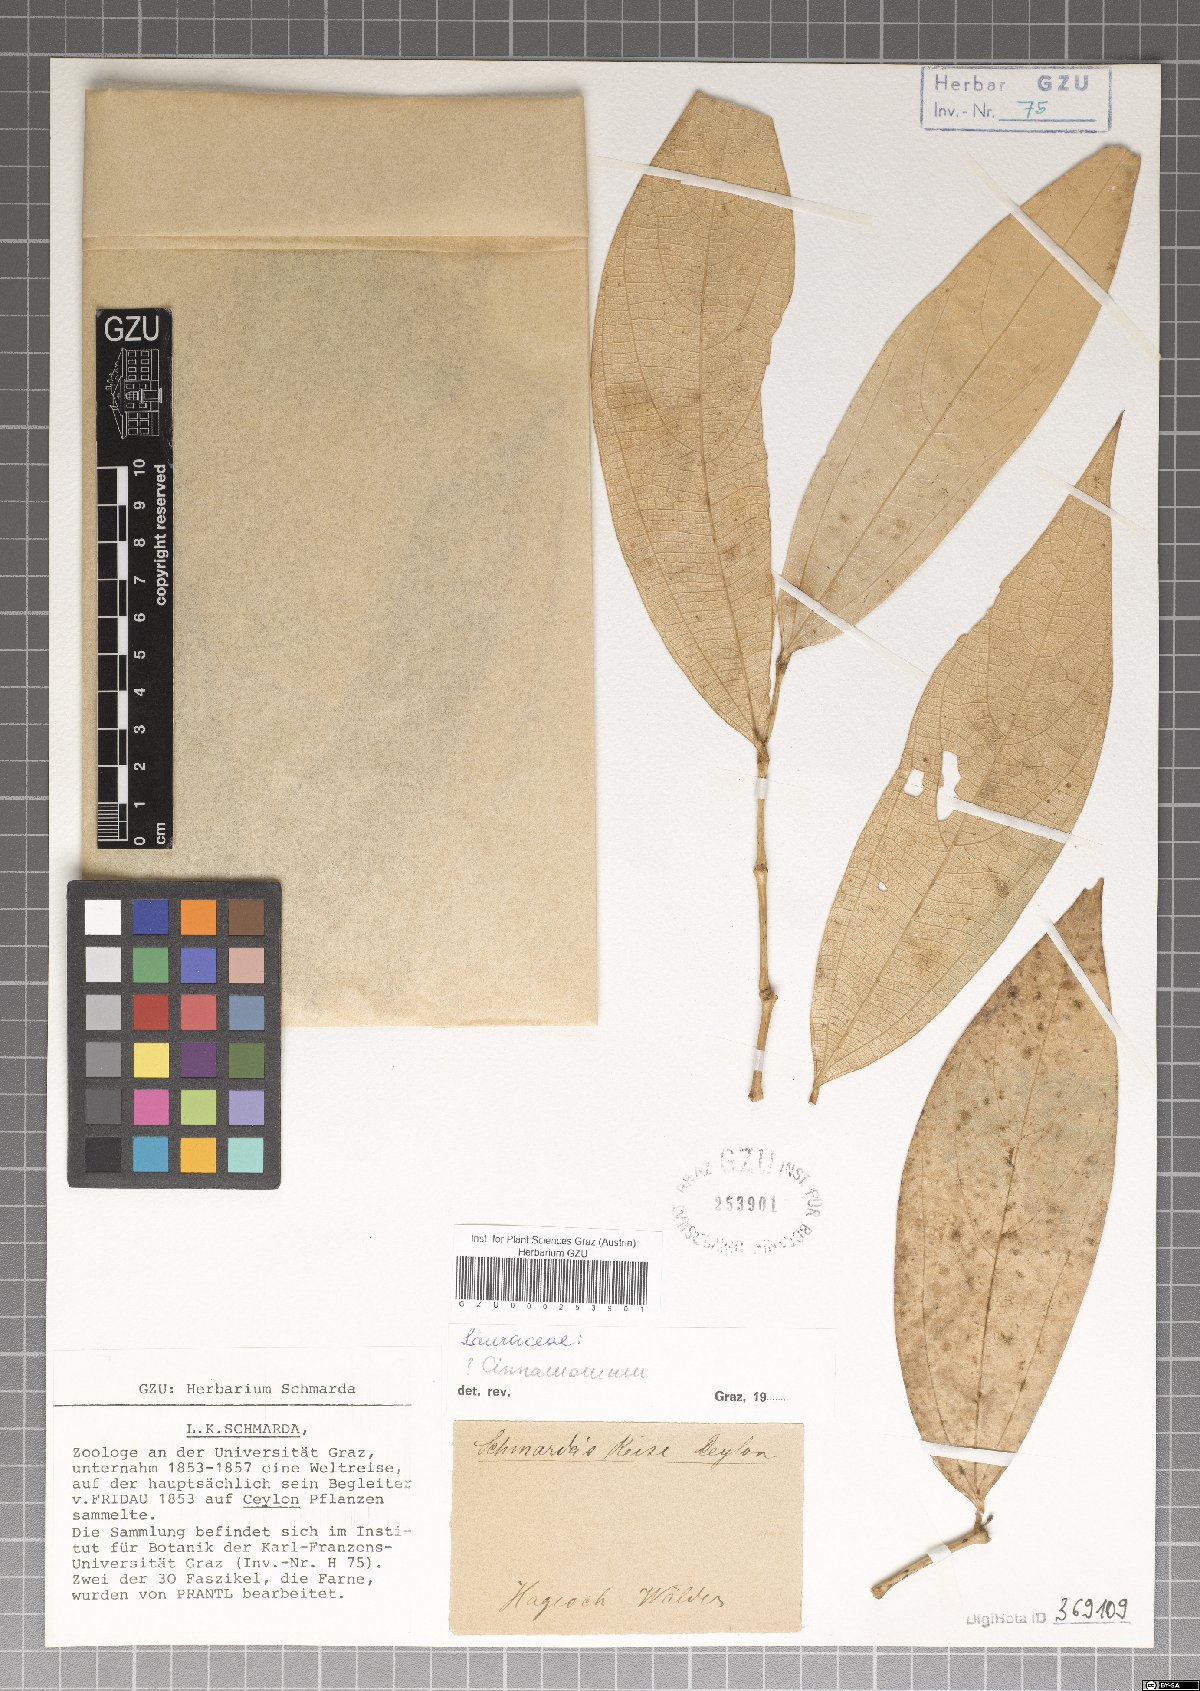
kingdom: Plantae
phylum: Tracheophyta
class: Magnoliopsida
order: Laurales
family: Lauraceae
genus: Cinnamomum
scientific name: Cinnamomum
